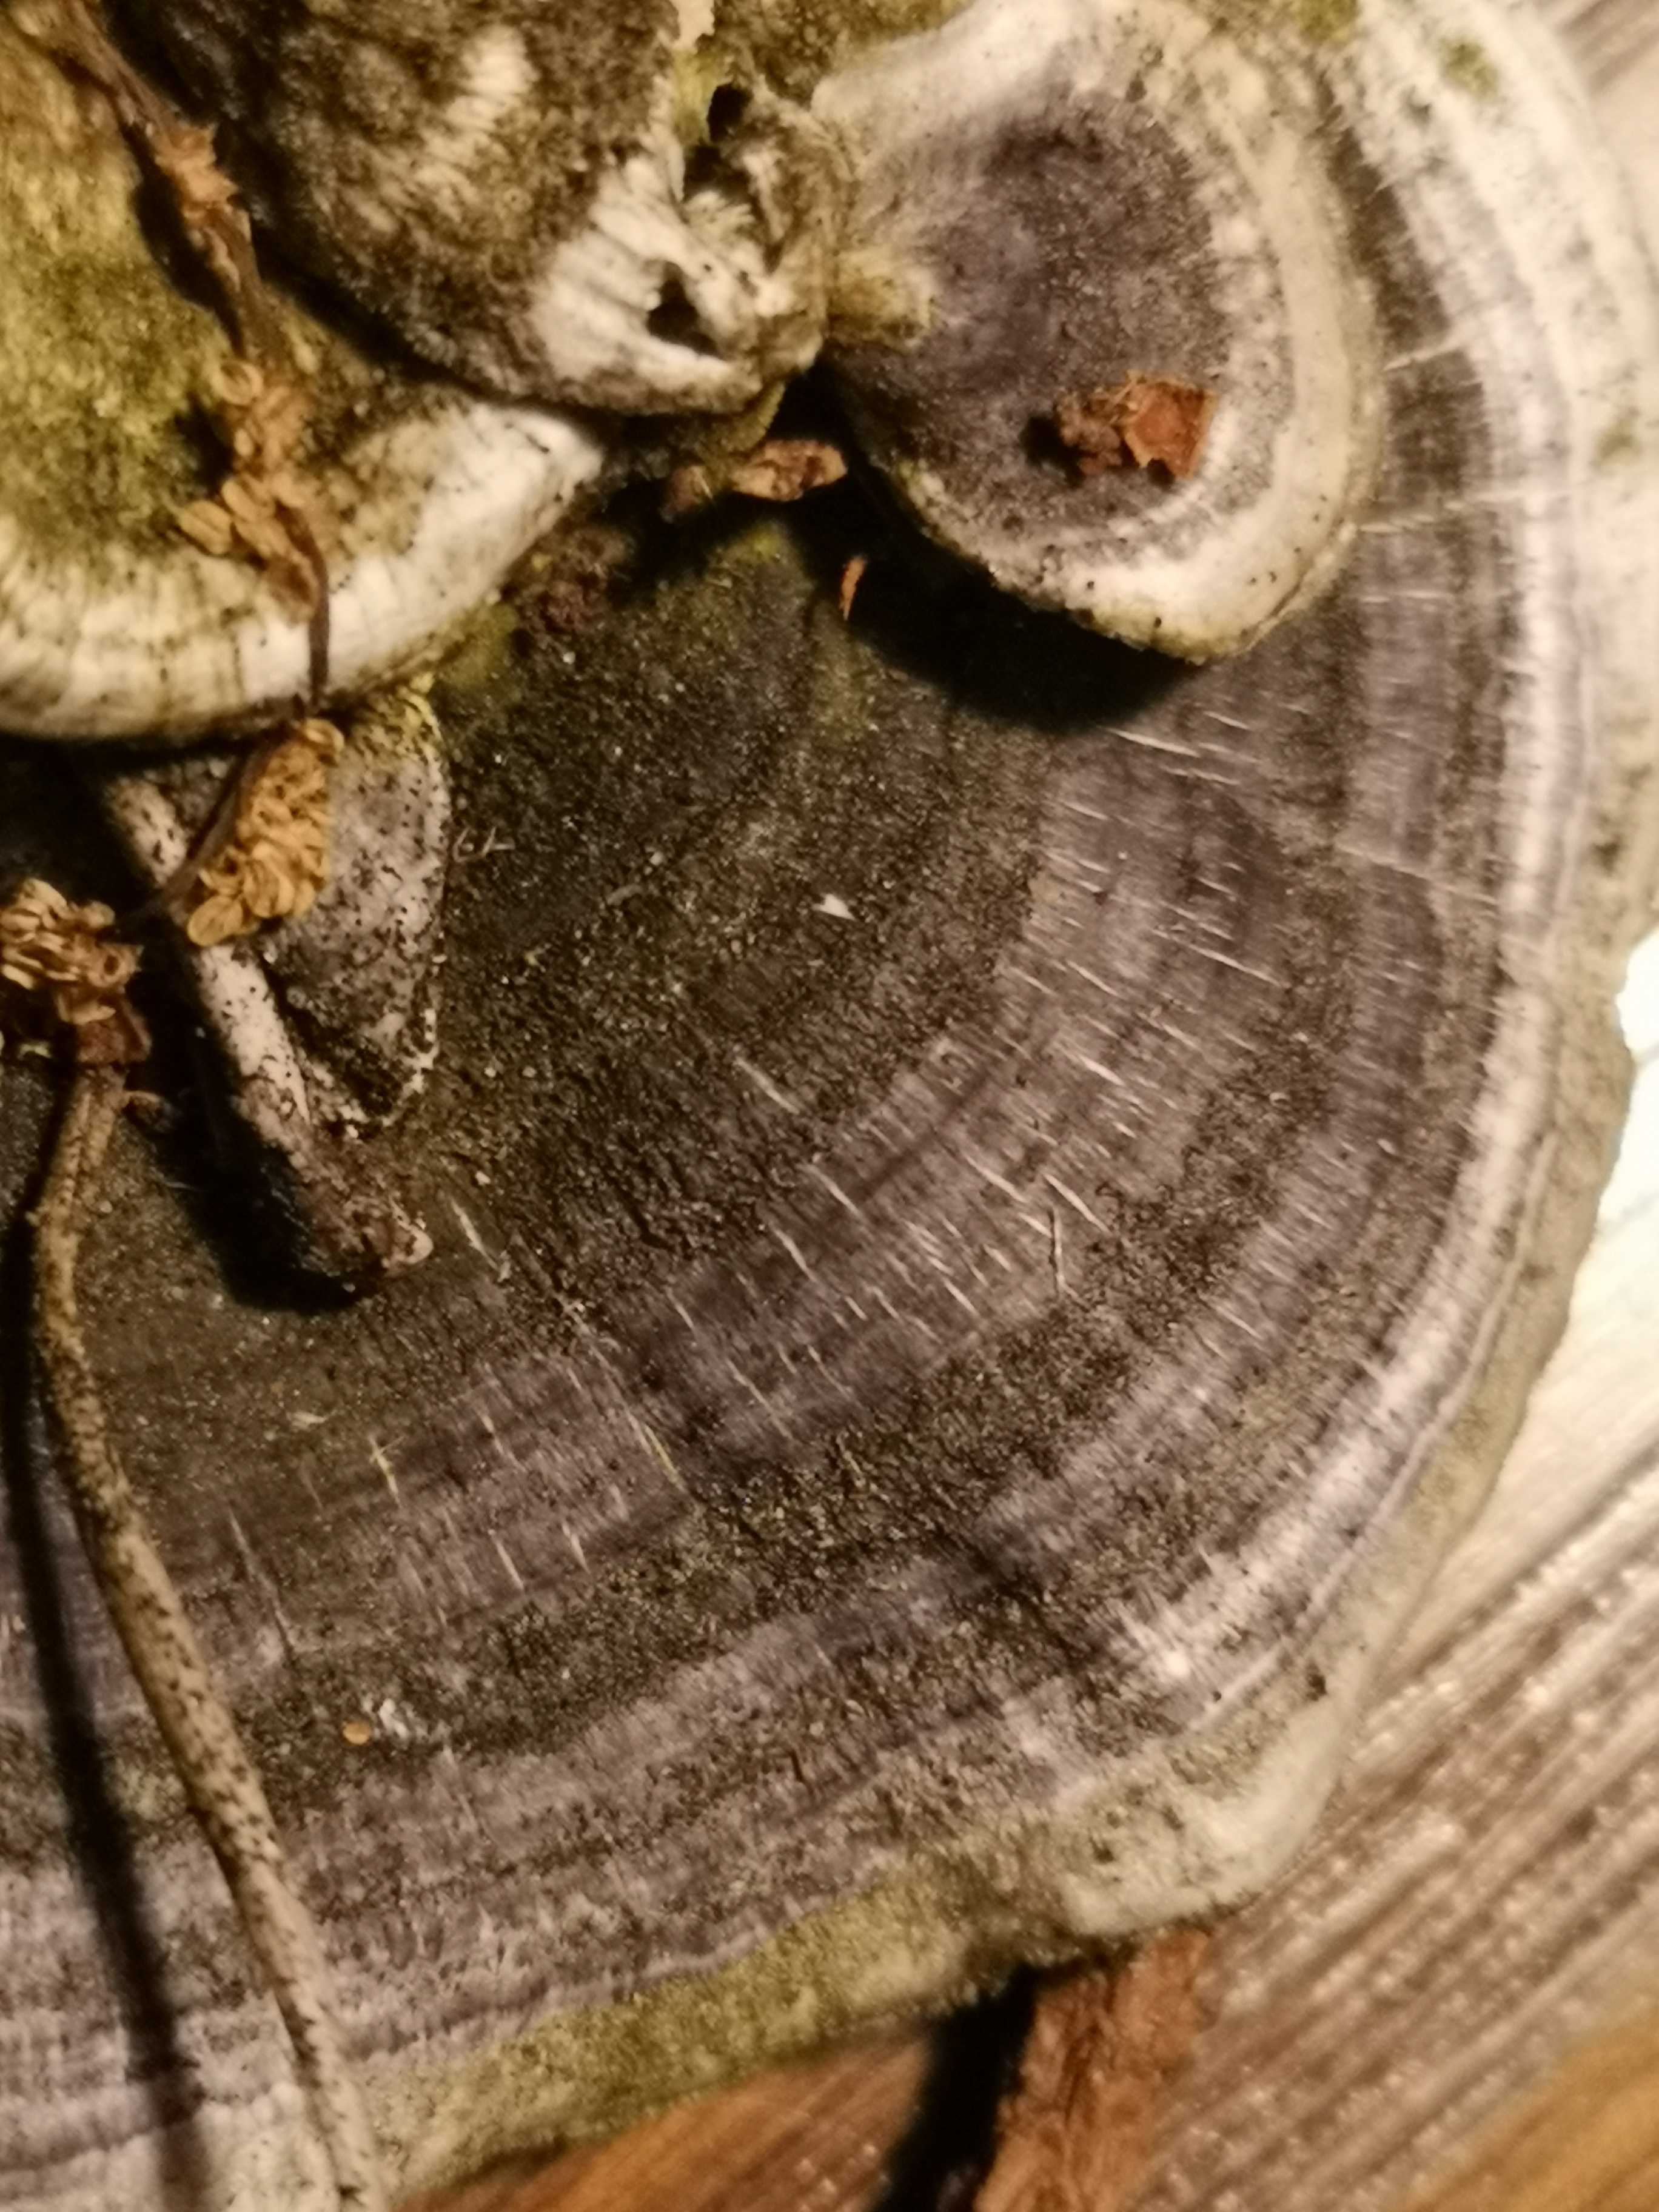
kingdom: Fungi
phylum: Basidiomycota
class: Agaricomycetes
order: Polyporales
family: Polyporaceae
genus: Trametes
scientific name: Trametes versicolor
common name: broget læderporesvamp
